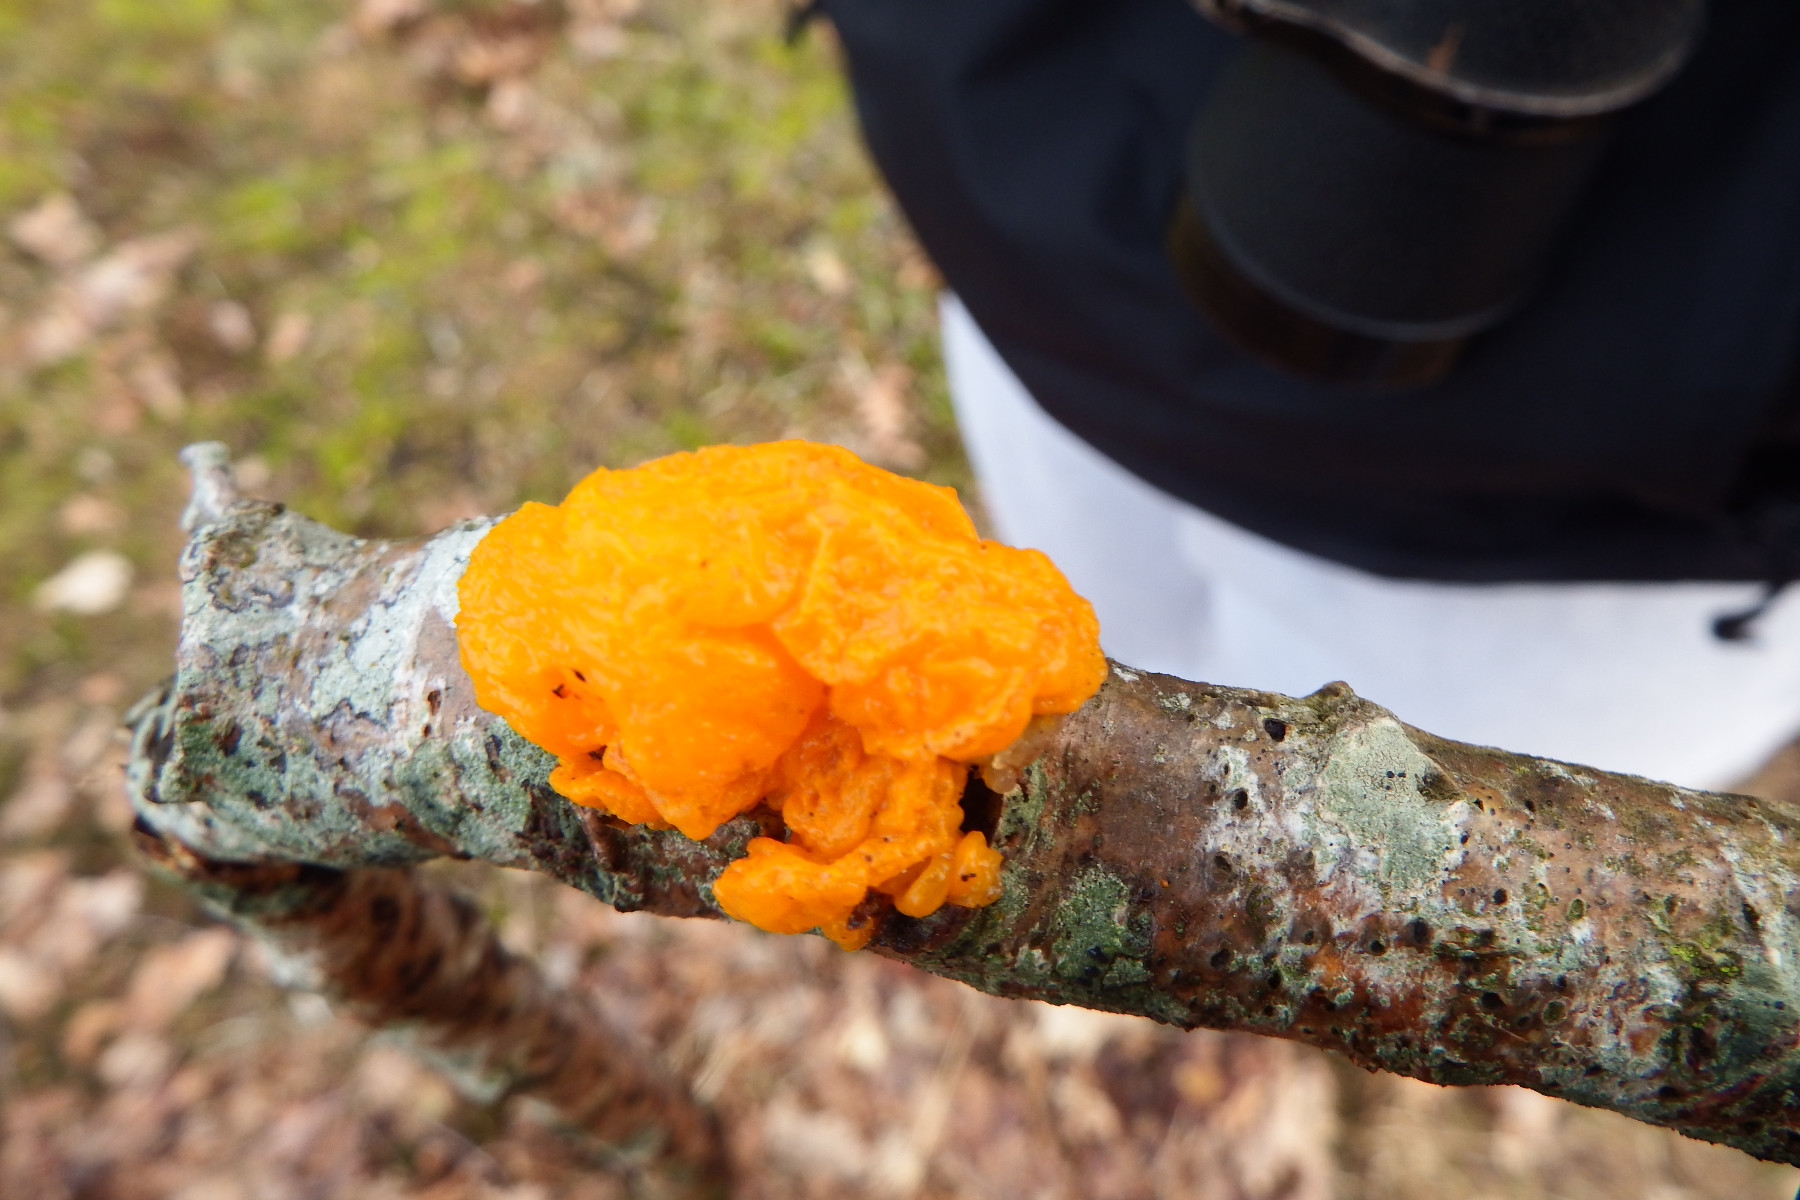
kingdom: Fungi
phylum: Basidiomycota
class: Tremellomycetes
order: Tremellales
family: Tremellaceae
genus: Tremella
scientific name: Tremella mesenterica
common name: gul bævresvamp
